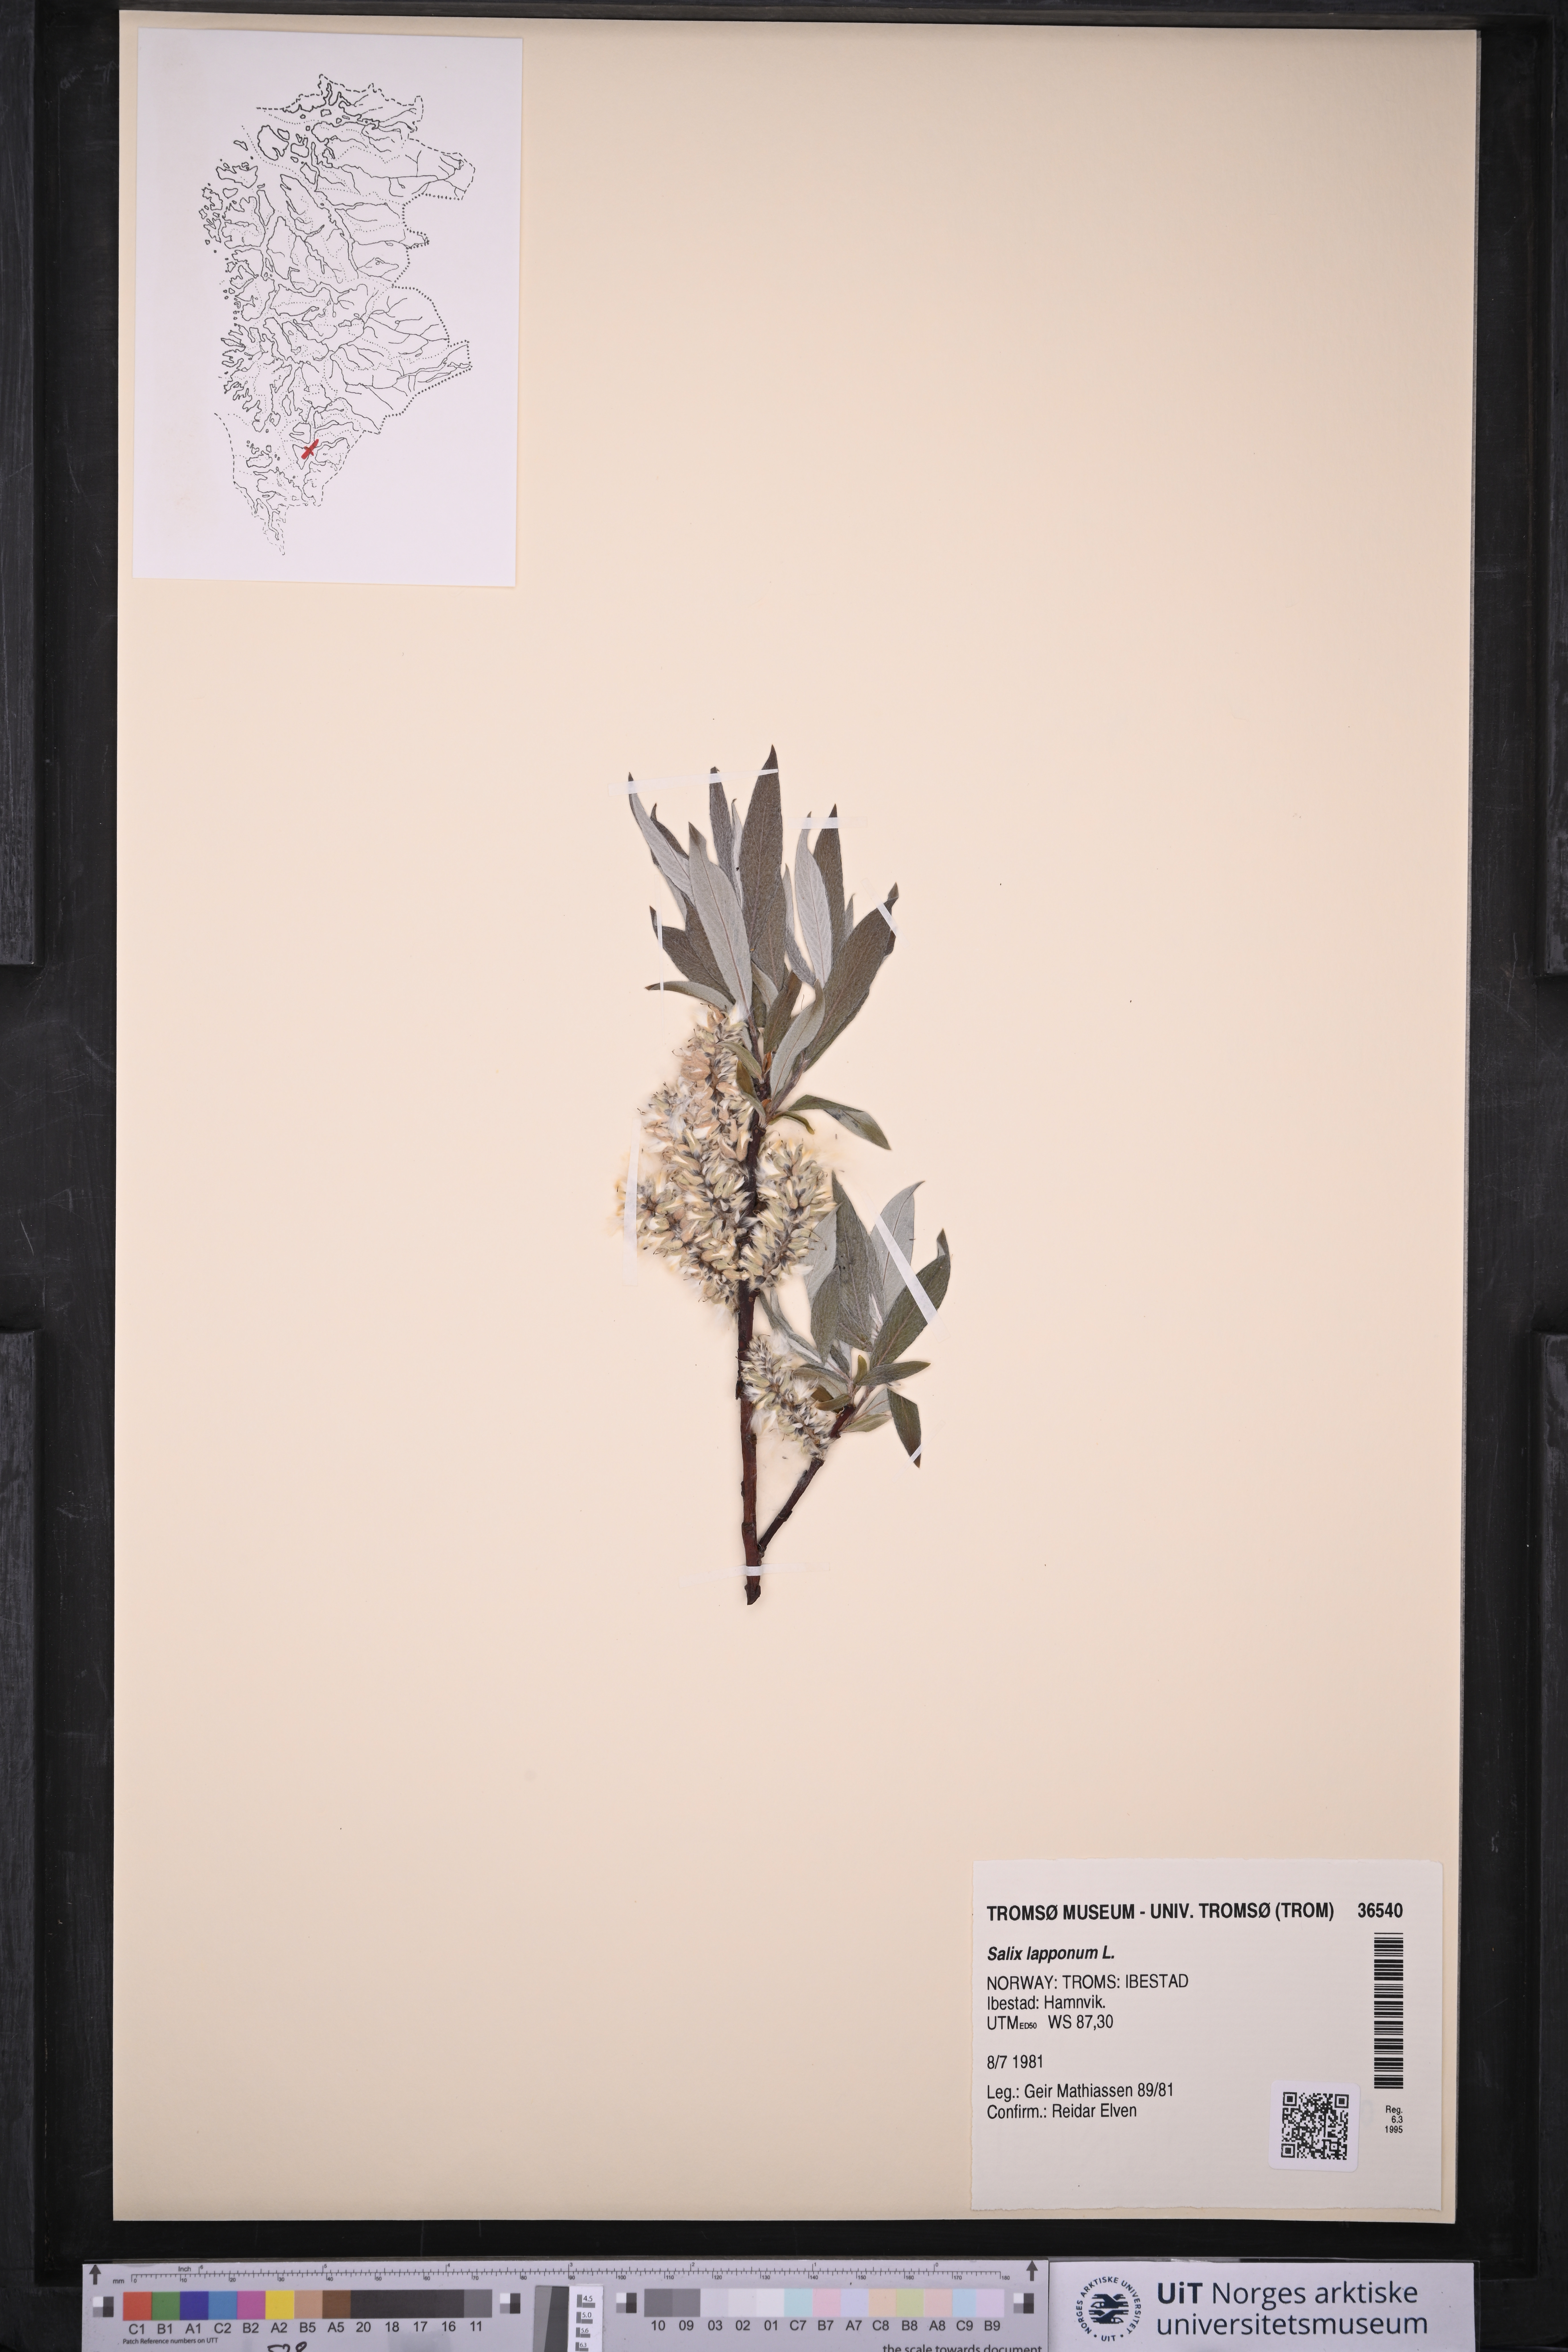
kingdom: Plantae
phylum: Tracheophyta
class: Magnoliopsida
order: Malpighiales
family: Salicaceae
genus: Salix
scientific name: Salix lapponum
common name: Downy willow
